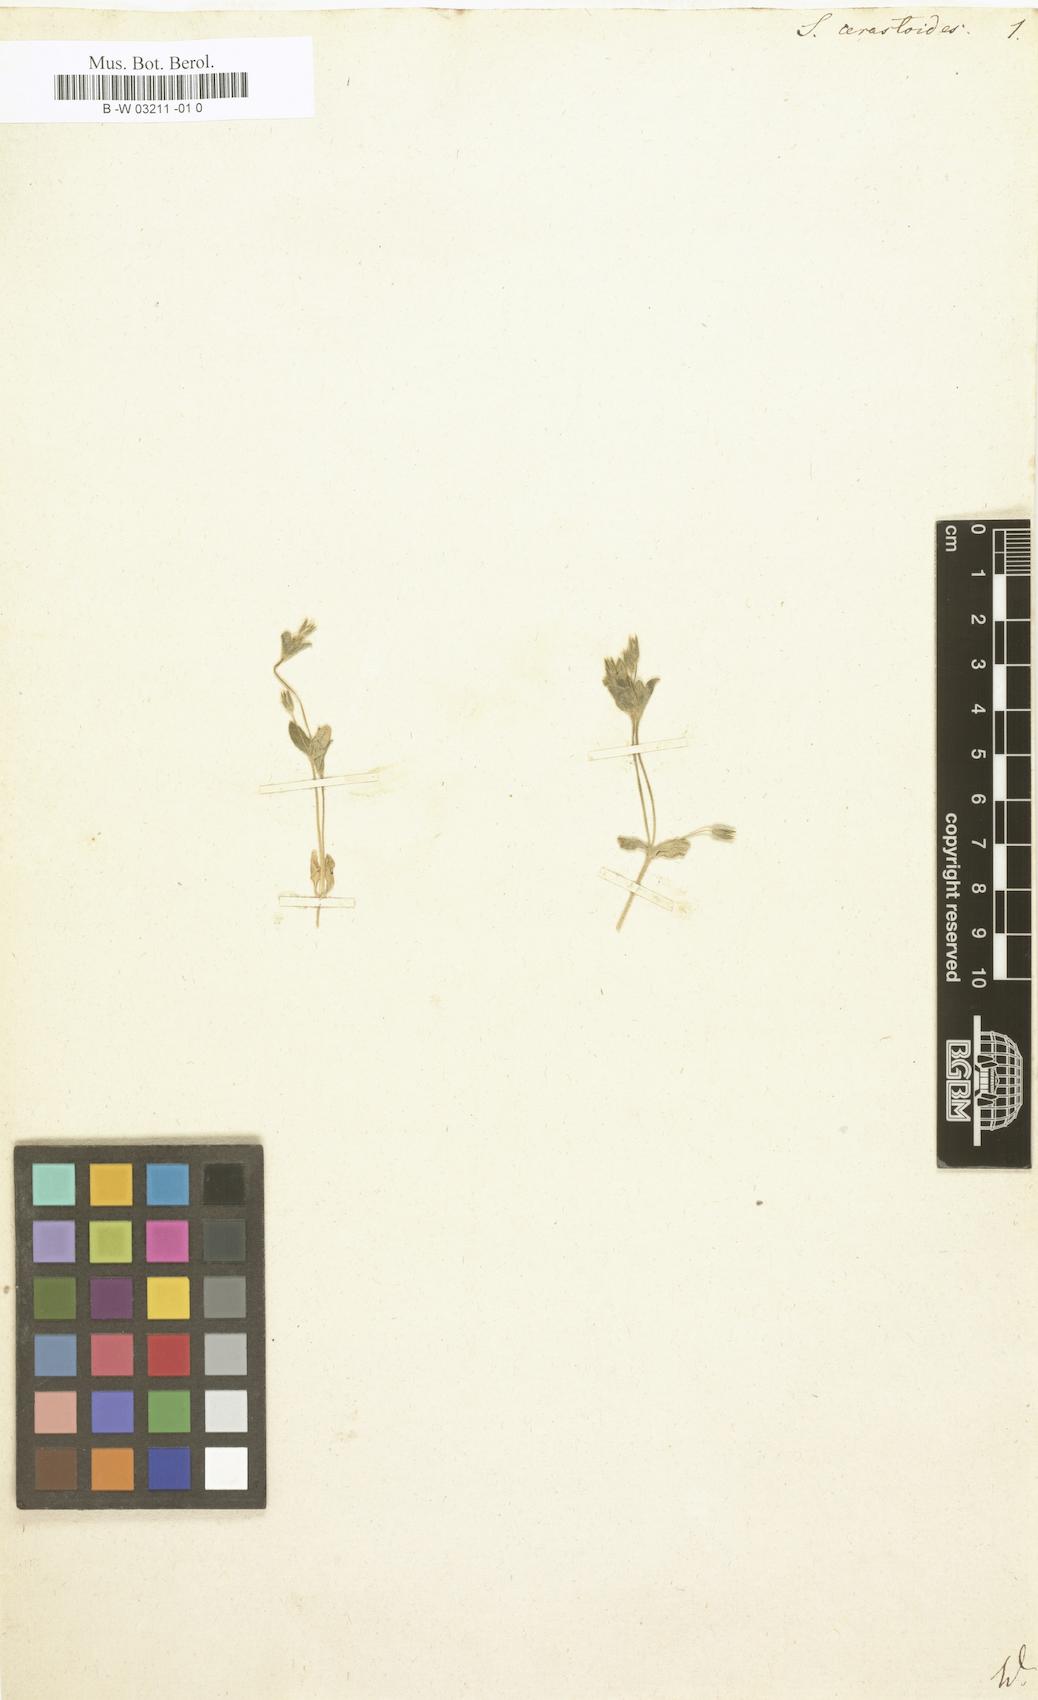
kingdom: Plantae
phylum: Tracheophyta
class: Magnoliopsida
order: Caryophyllales
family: Caryophyllaceae
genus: Cerastium
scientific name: Cerastium diffusum
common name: Fourstamen chickweed
